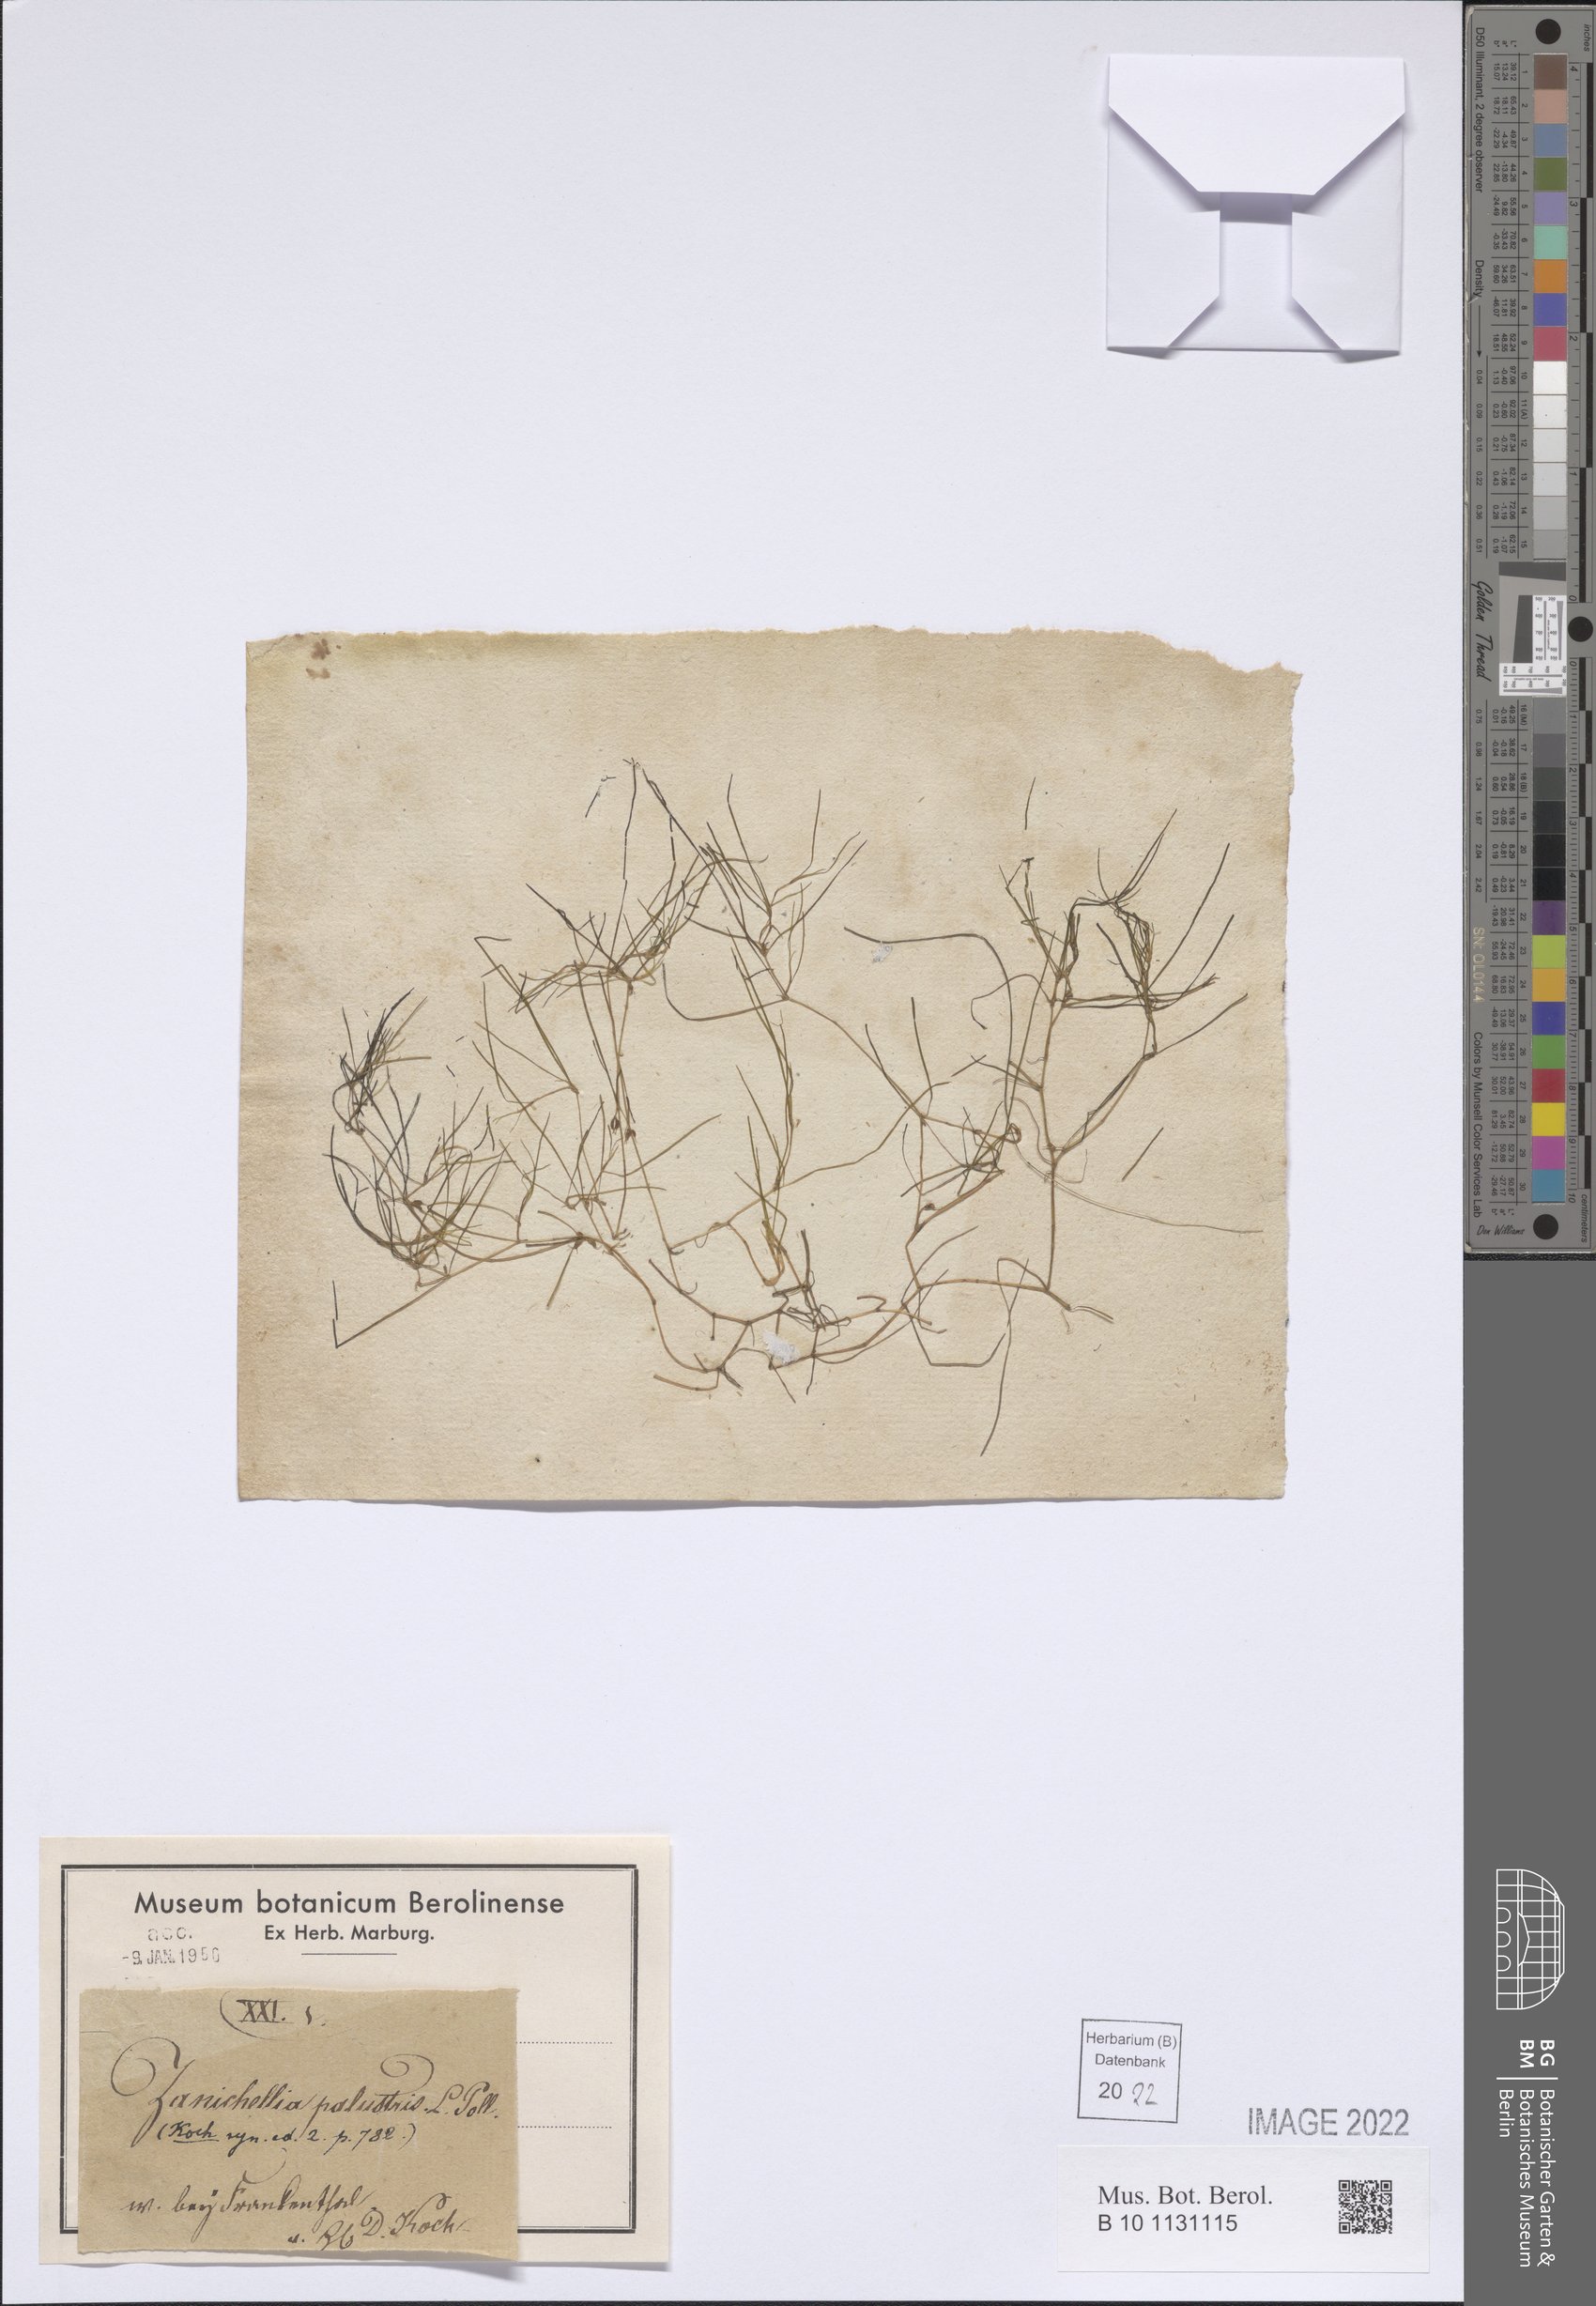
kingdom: Plantae
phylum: Tracheophyta
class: Liliopsida
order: Alismatales
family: Potamogetonaceae
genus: Zannichellia
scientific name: Zannichellia palustris
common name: Horned pondweed
